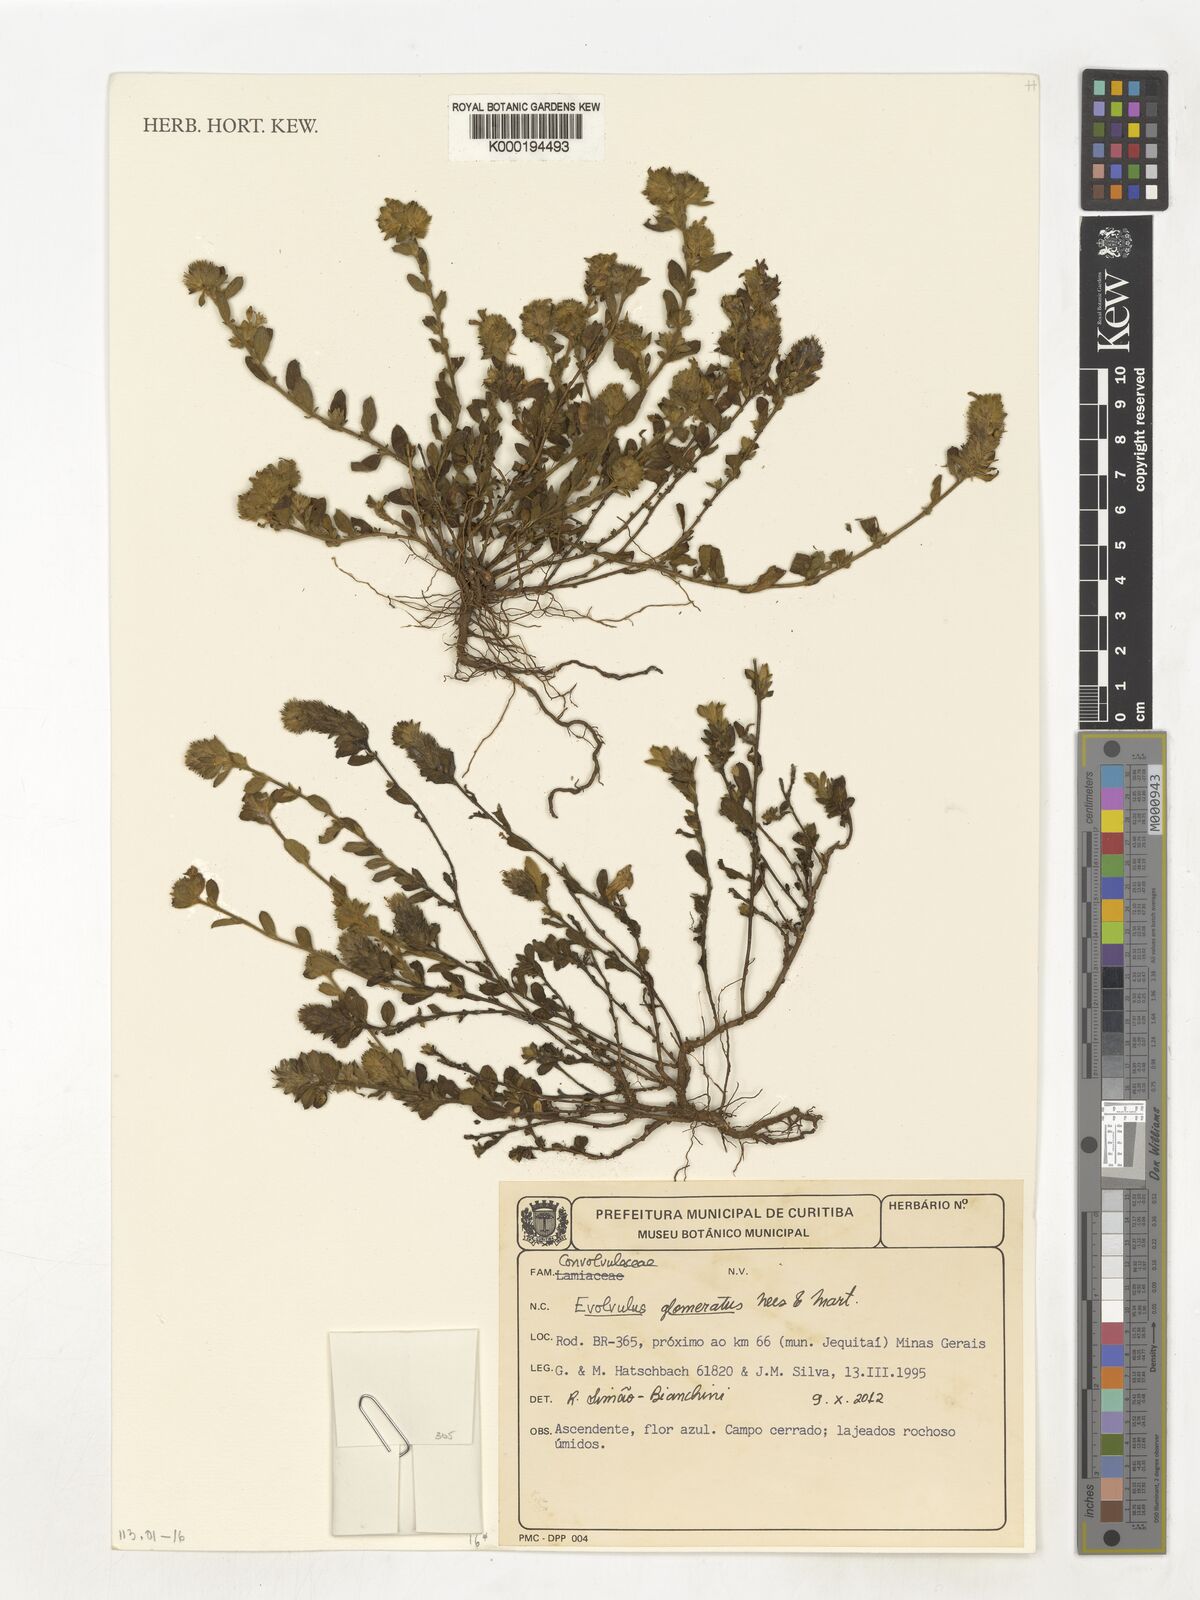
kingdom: Plantae
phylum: Tracheophyta
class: Magnoliopsida
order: Solanales
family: Convolvulaceae
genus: Evolvulus
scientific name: Evolvulus
